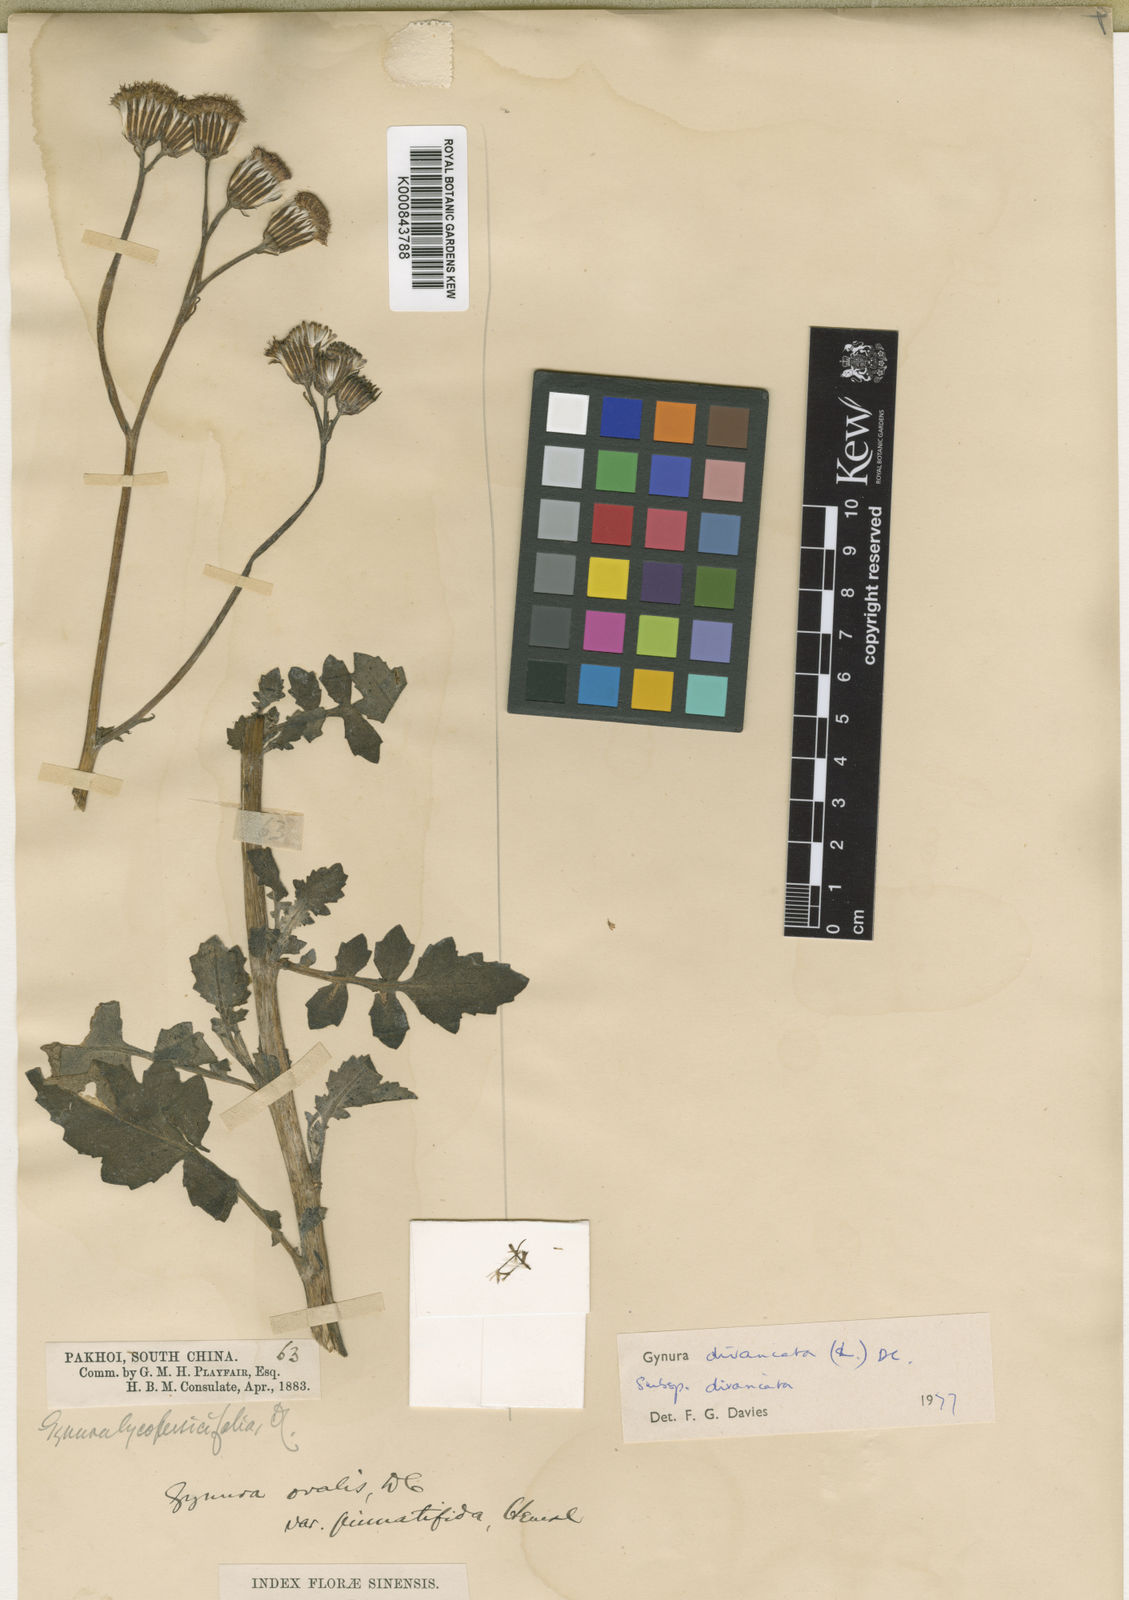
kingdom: Plantae
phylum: Tracheophyta
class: Magnoliopsida
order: Asterales
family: Asteraceae
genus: Gynura
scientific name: Gynura divaricata
